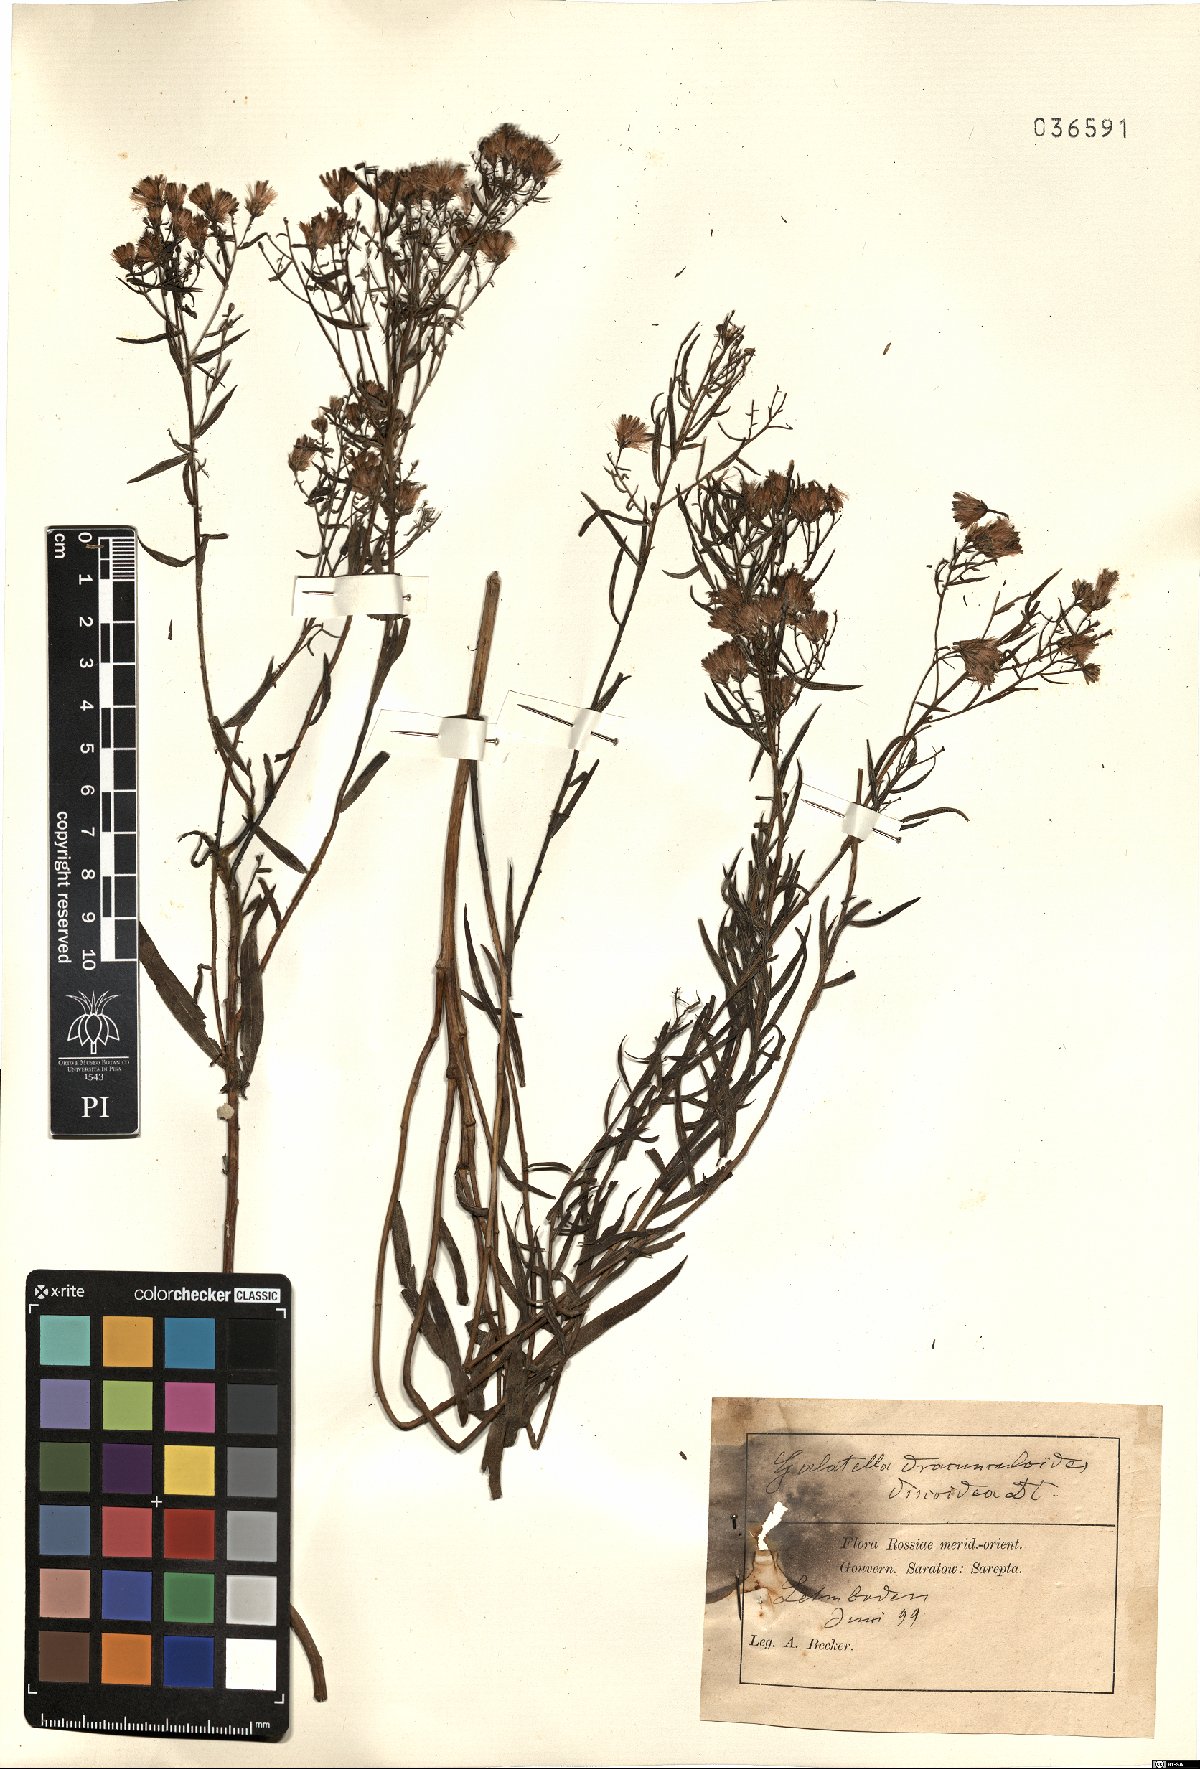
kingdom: Plantae
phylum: Tracheophyta
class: Magnoliopsida
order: Asterales
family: Asteraceae
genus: Galatella
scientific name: Galatella sedifolia
